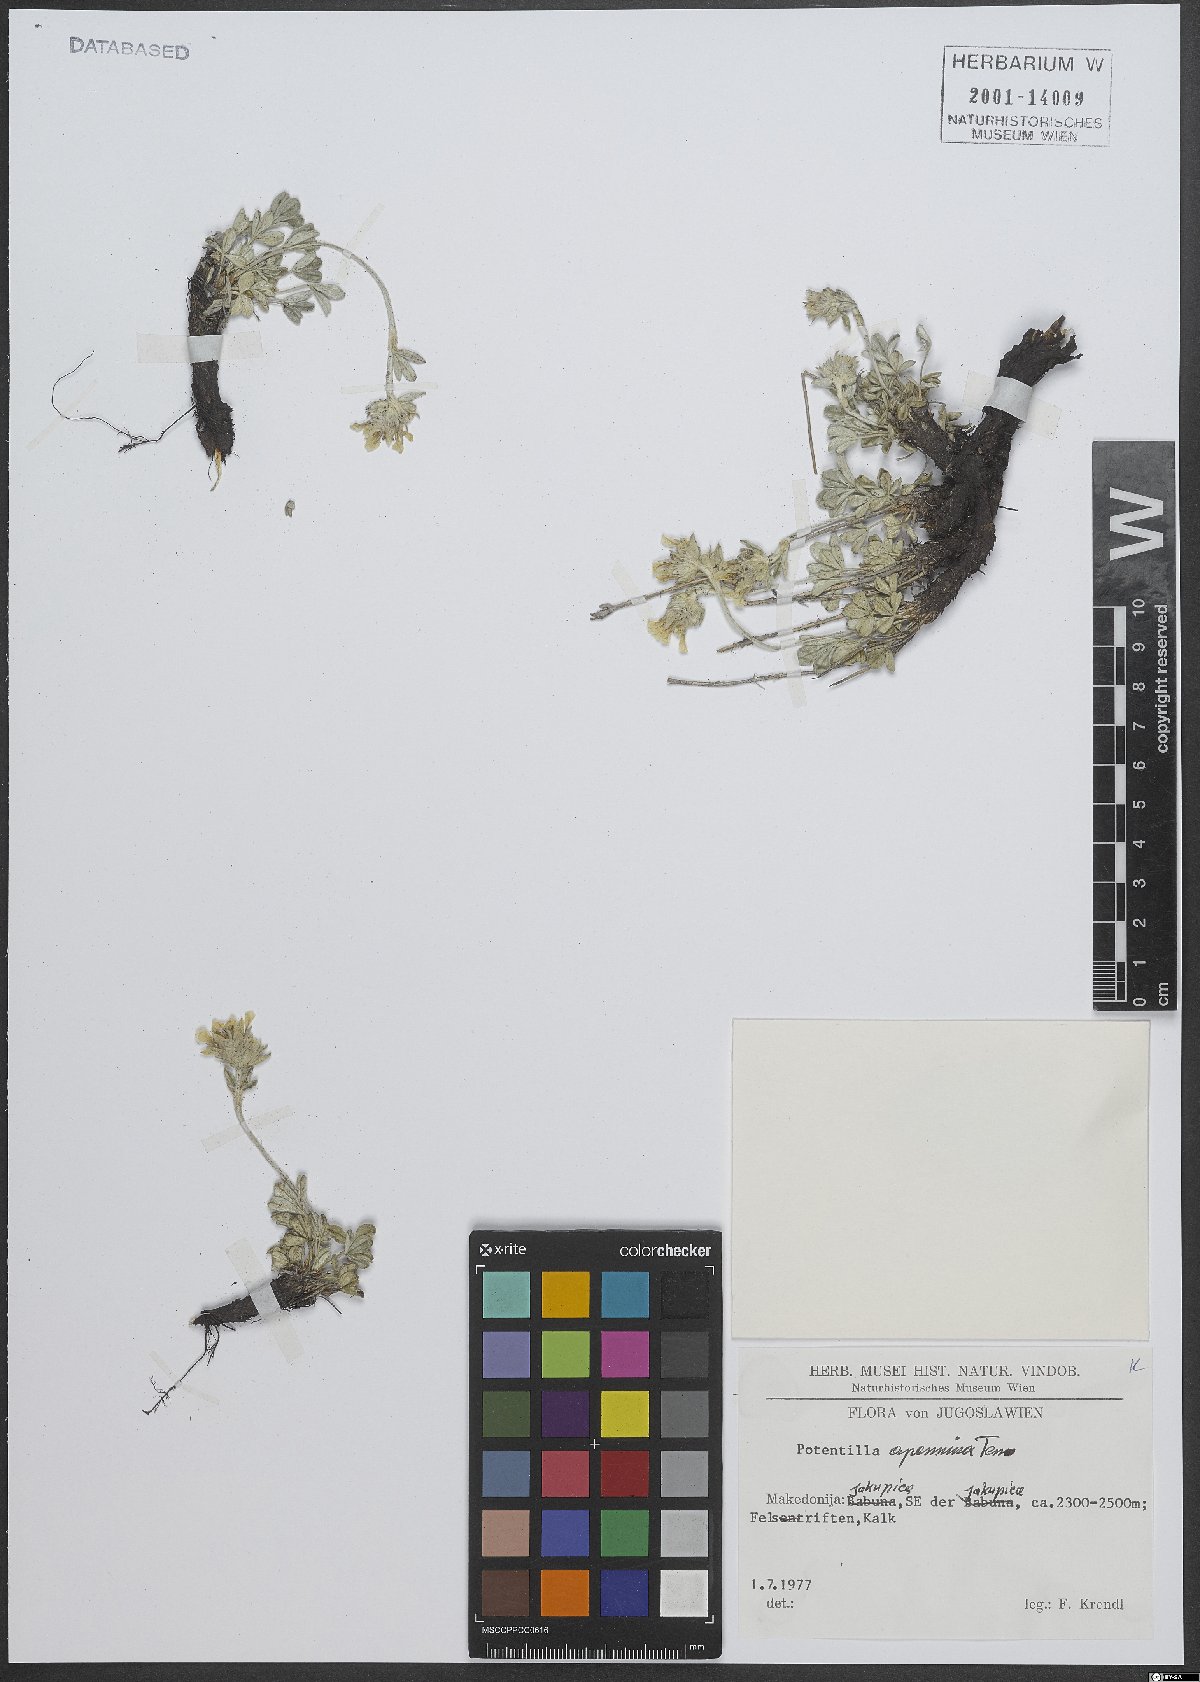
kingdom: Plantae
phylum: Tracheophyta
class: Magnoliopsida
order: Rosales
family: Rosaceae
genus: Potentilla
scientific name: Potentilla apennina
